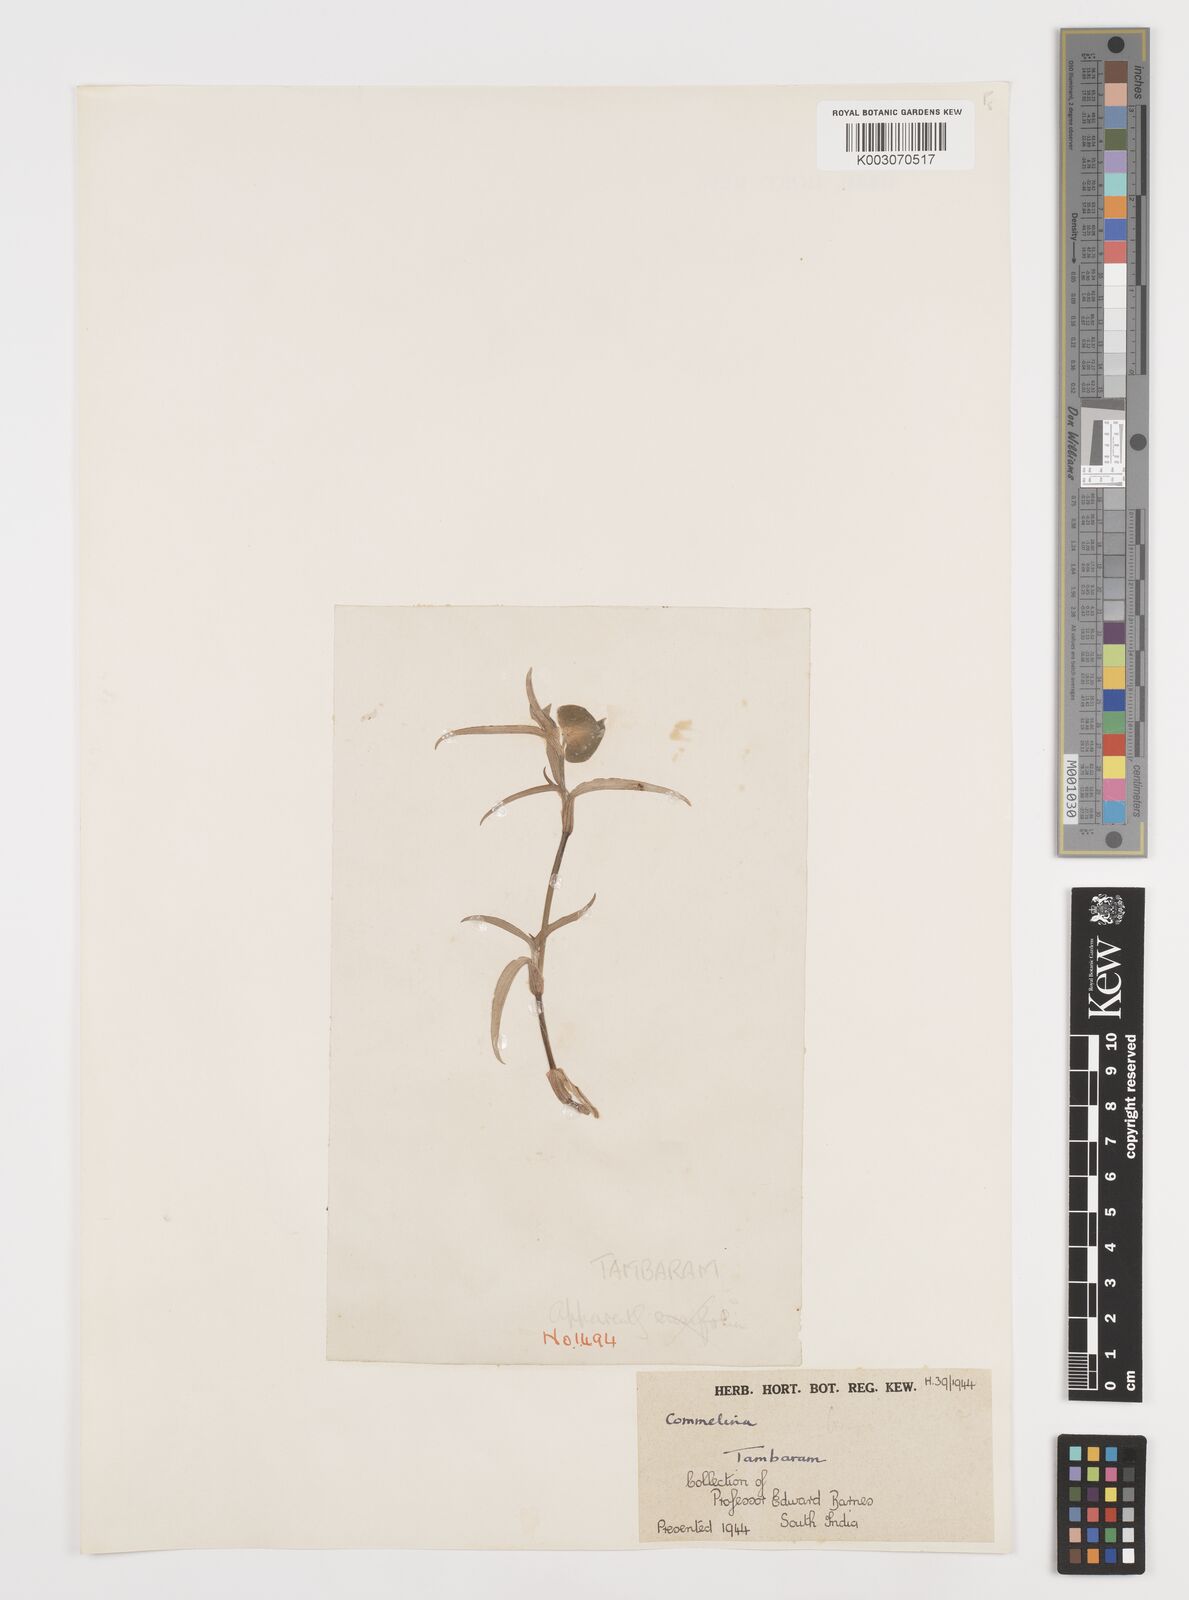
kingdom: Plantae
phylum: Tracheophyta
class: Liliopsida
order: Commelinales
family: Commelinaceae
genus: Commelina
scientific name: Commelina
